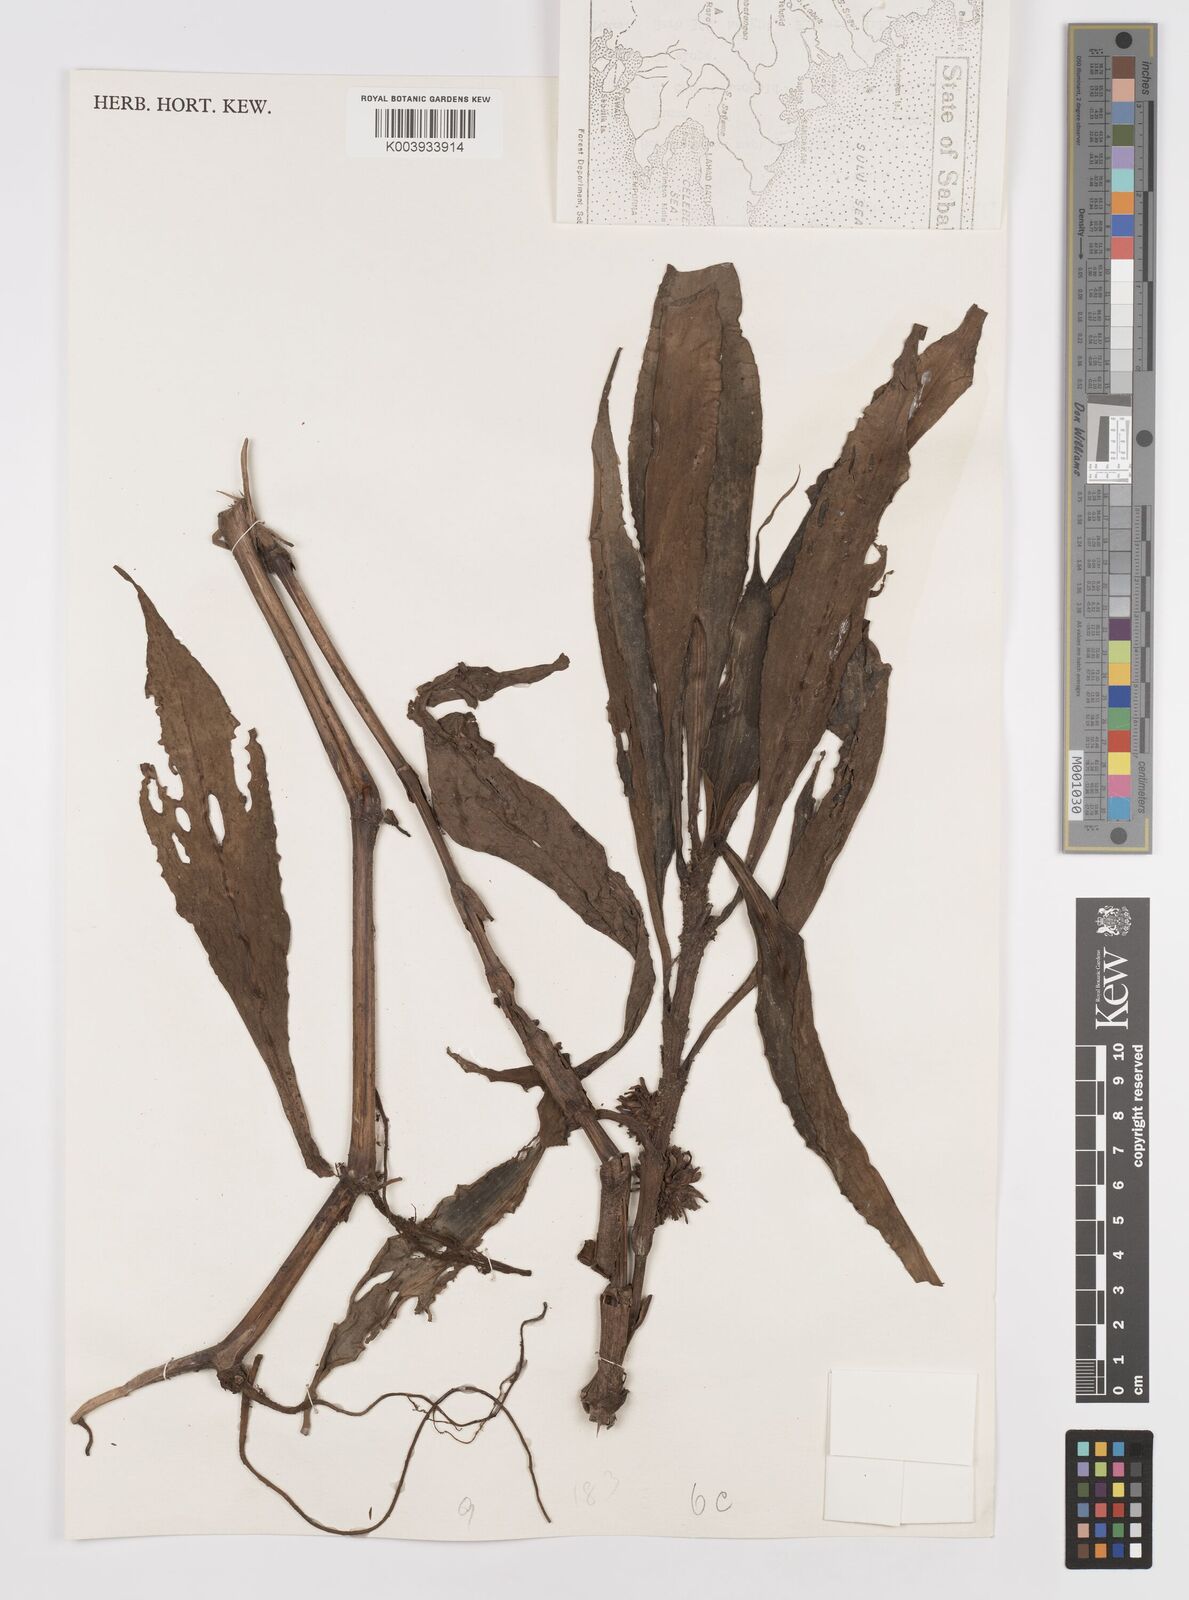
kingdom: Plantae
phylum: Tracheophyta
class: Liliopsida
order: Commelinales
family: Commelinaceae
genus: Amischotolype
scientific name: Amischotolype glabrata
